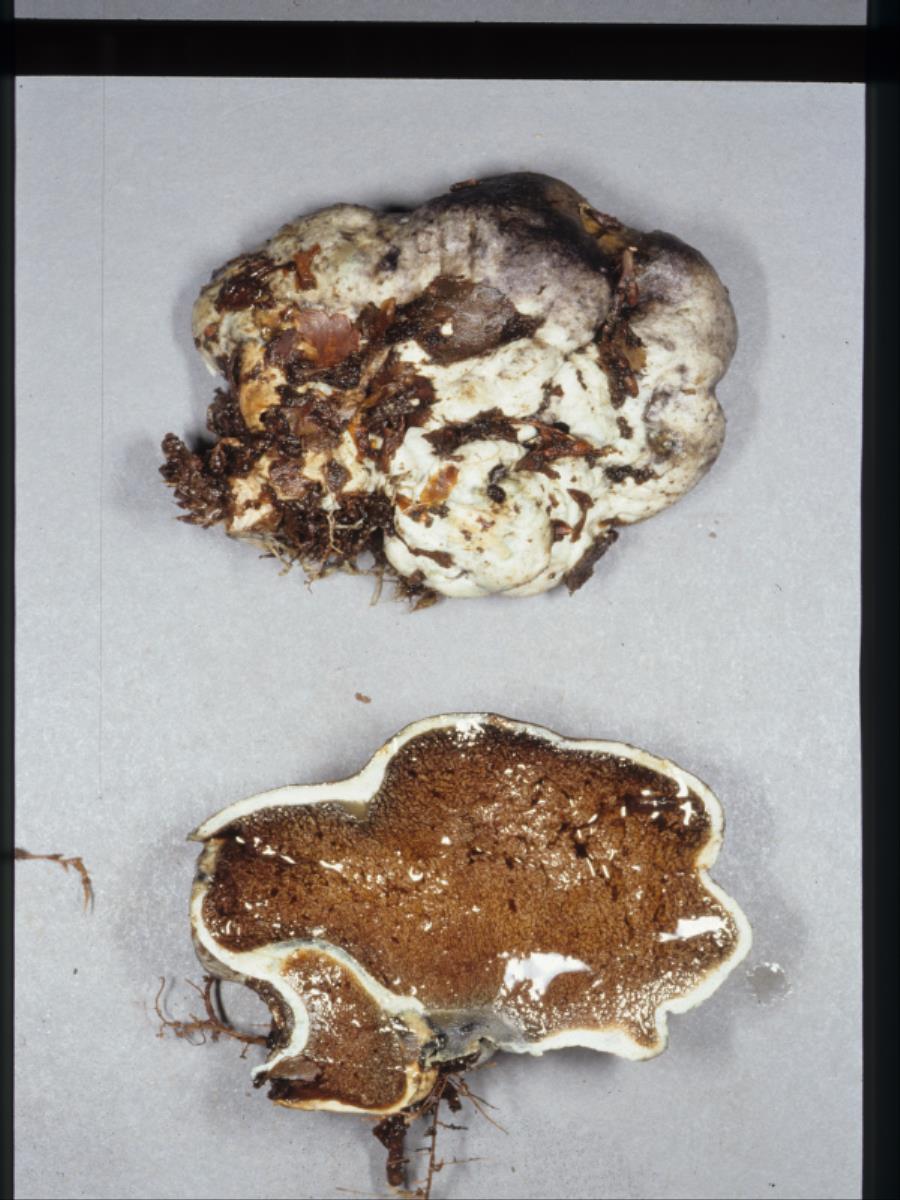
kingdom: Fungi
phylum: Basidiomycota
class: Agaricomycetes
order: Gomphales
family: Gomphaceae
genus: Gautieria
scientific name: Gautieria
